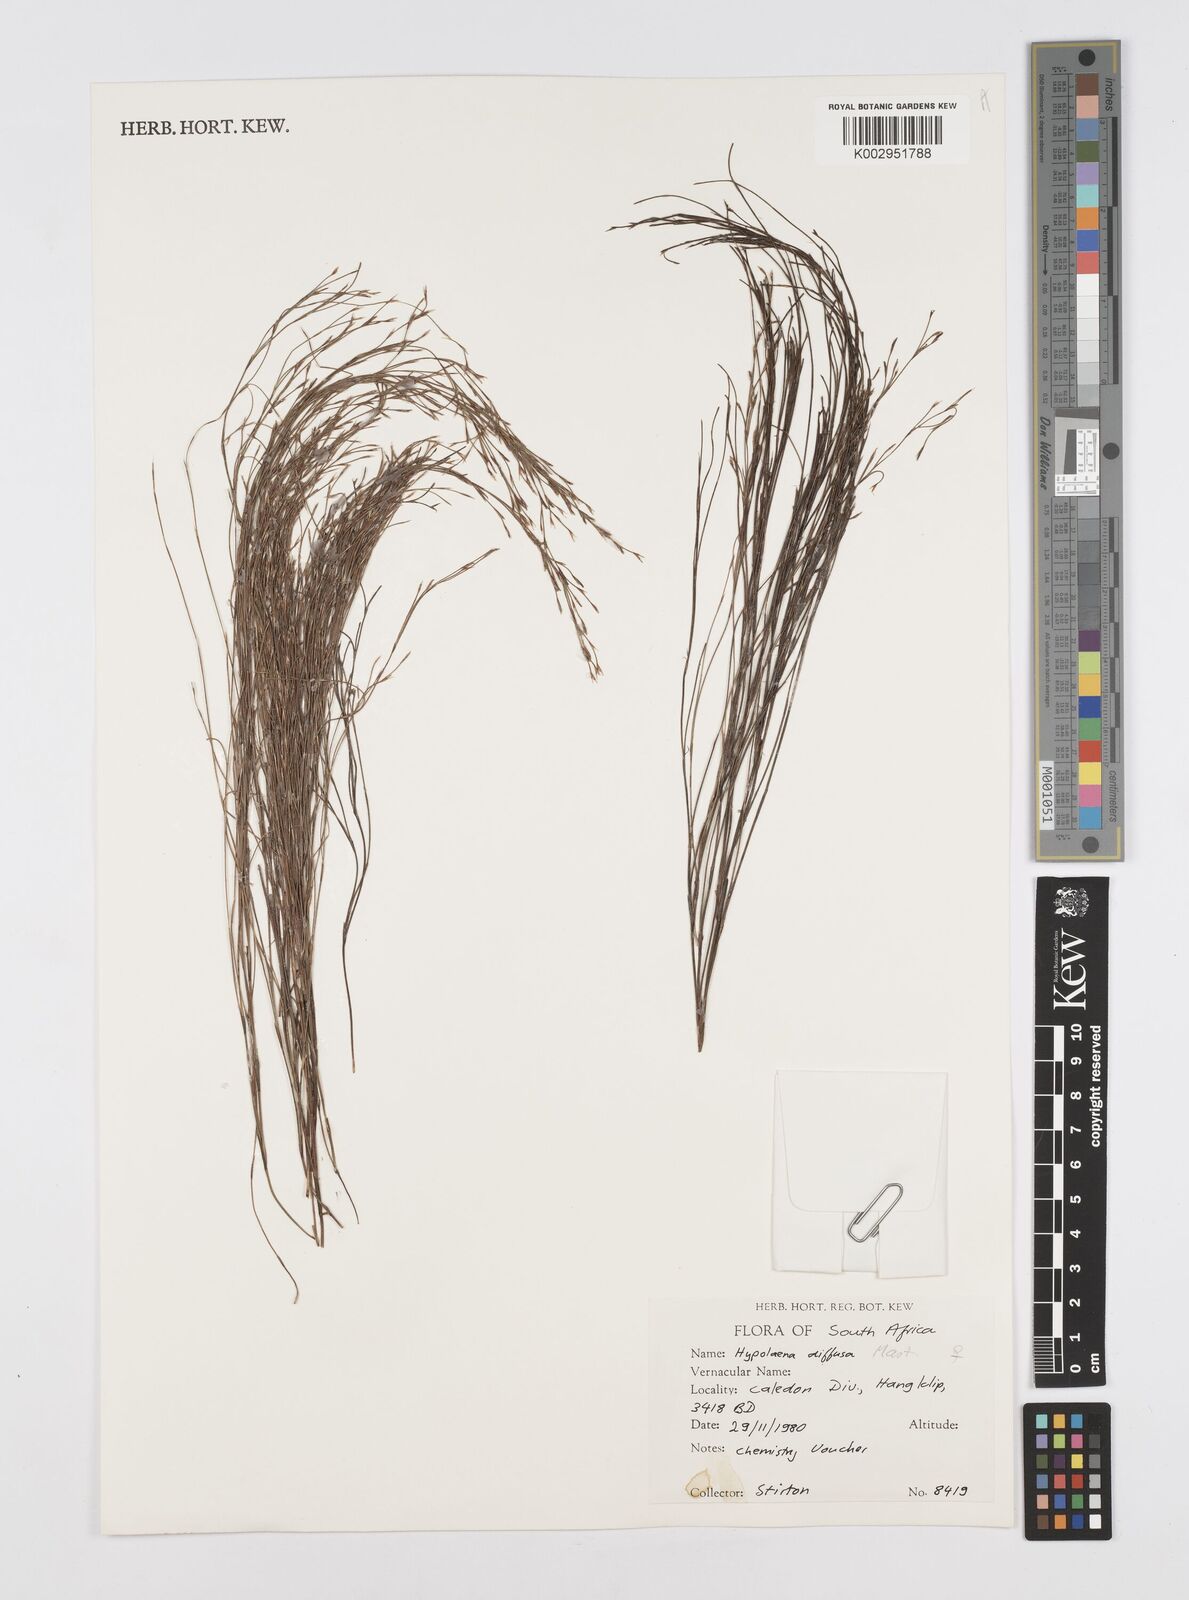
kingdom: Plantae
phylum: Tracheophyta
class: Liliopsida
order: Poales
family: Restionaceae
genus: Restio
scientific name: Restio versatilis
